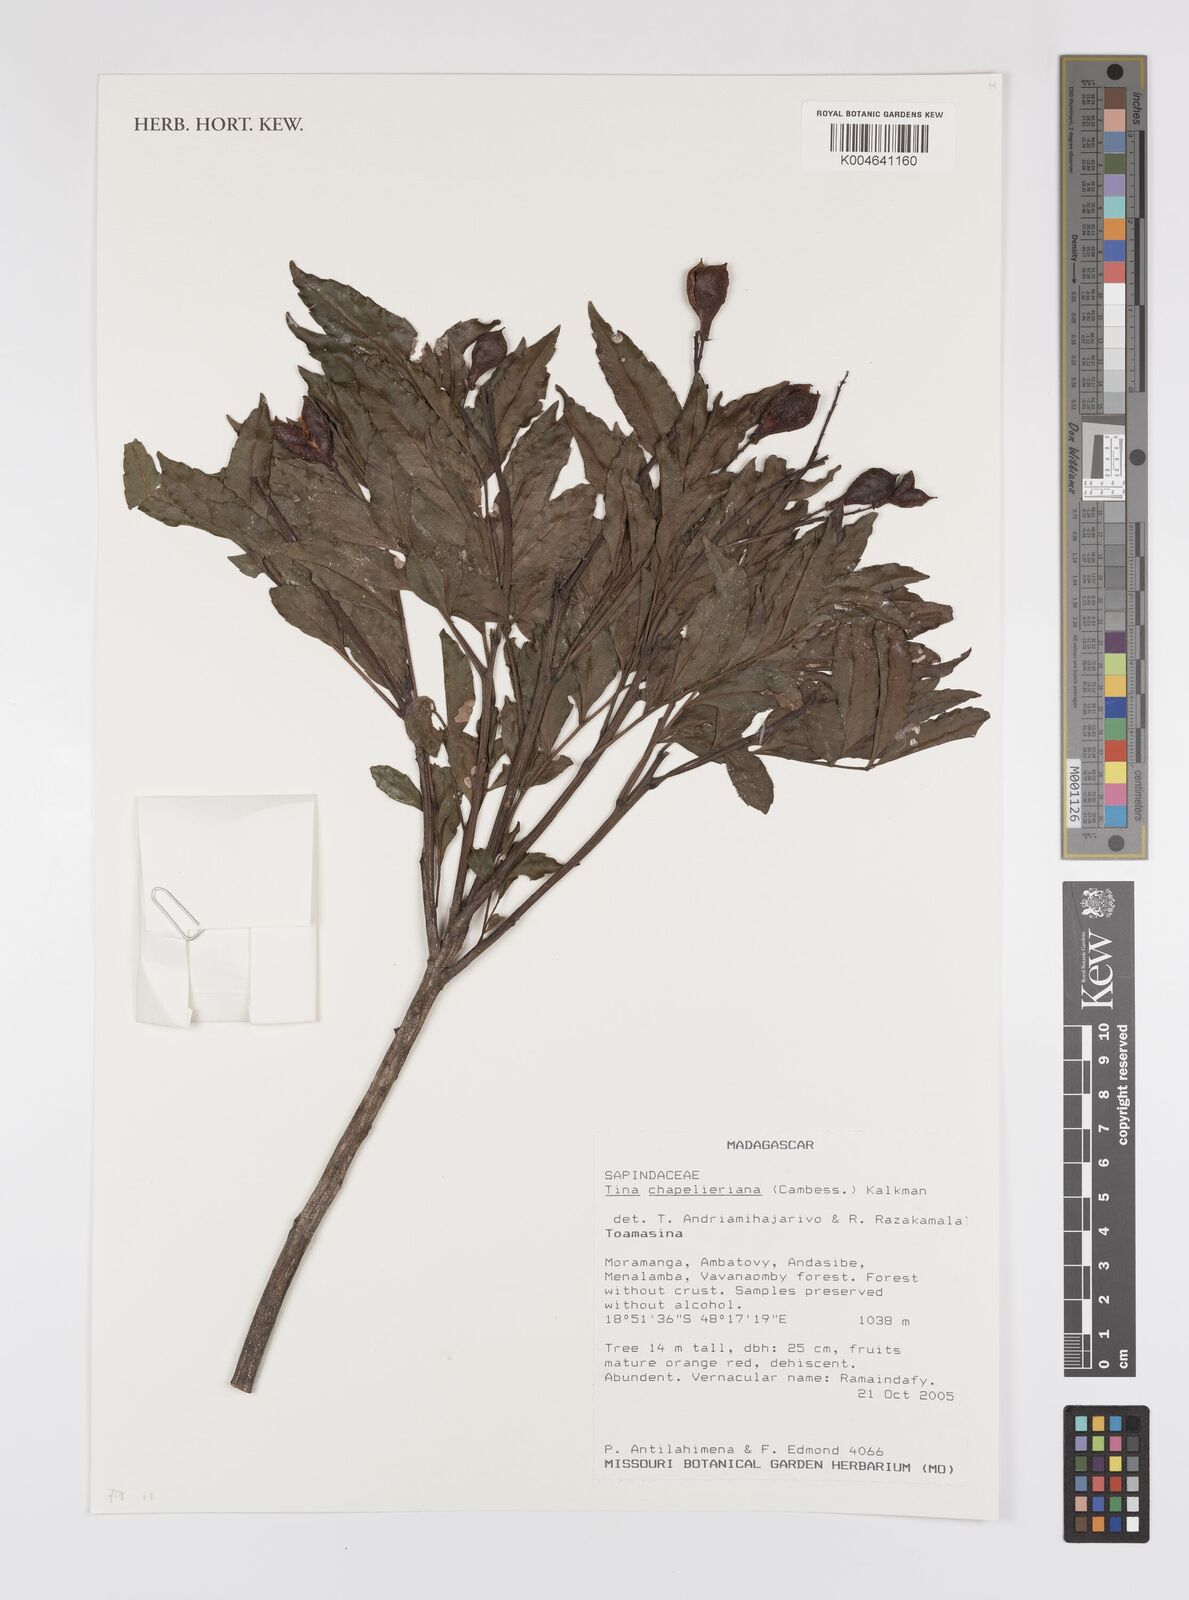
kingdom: Plantae
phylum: Tracheophyta
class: Magnoliopsida
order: Sapindales
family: Sapindaceae
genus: Tina
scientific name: Tina chapelieriana
